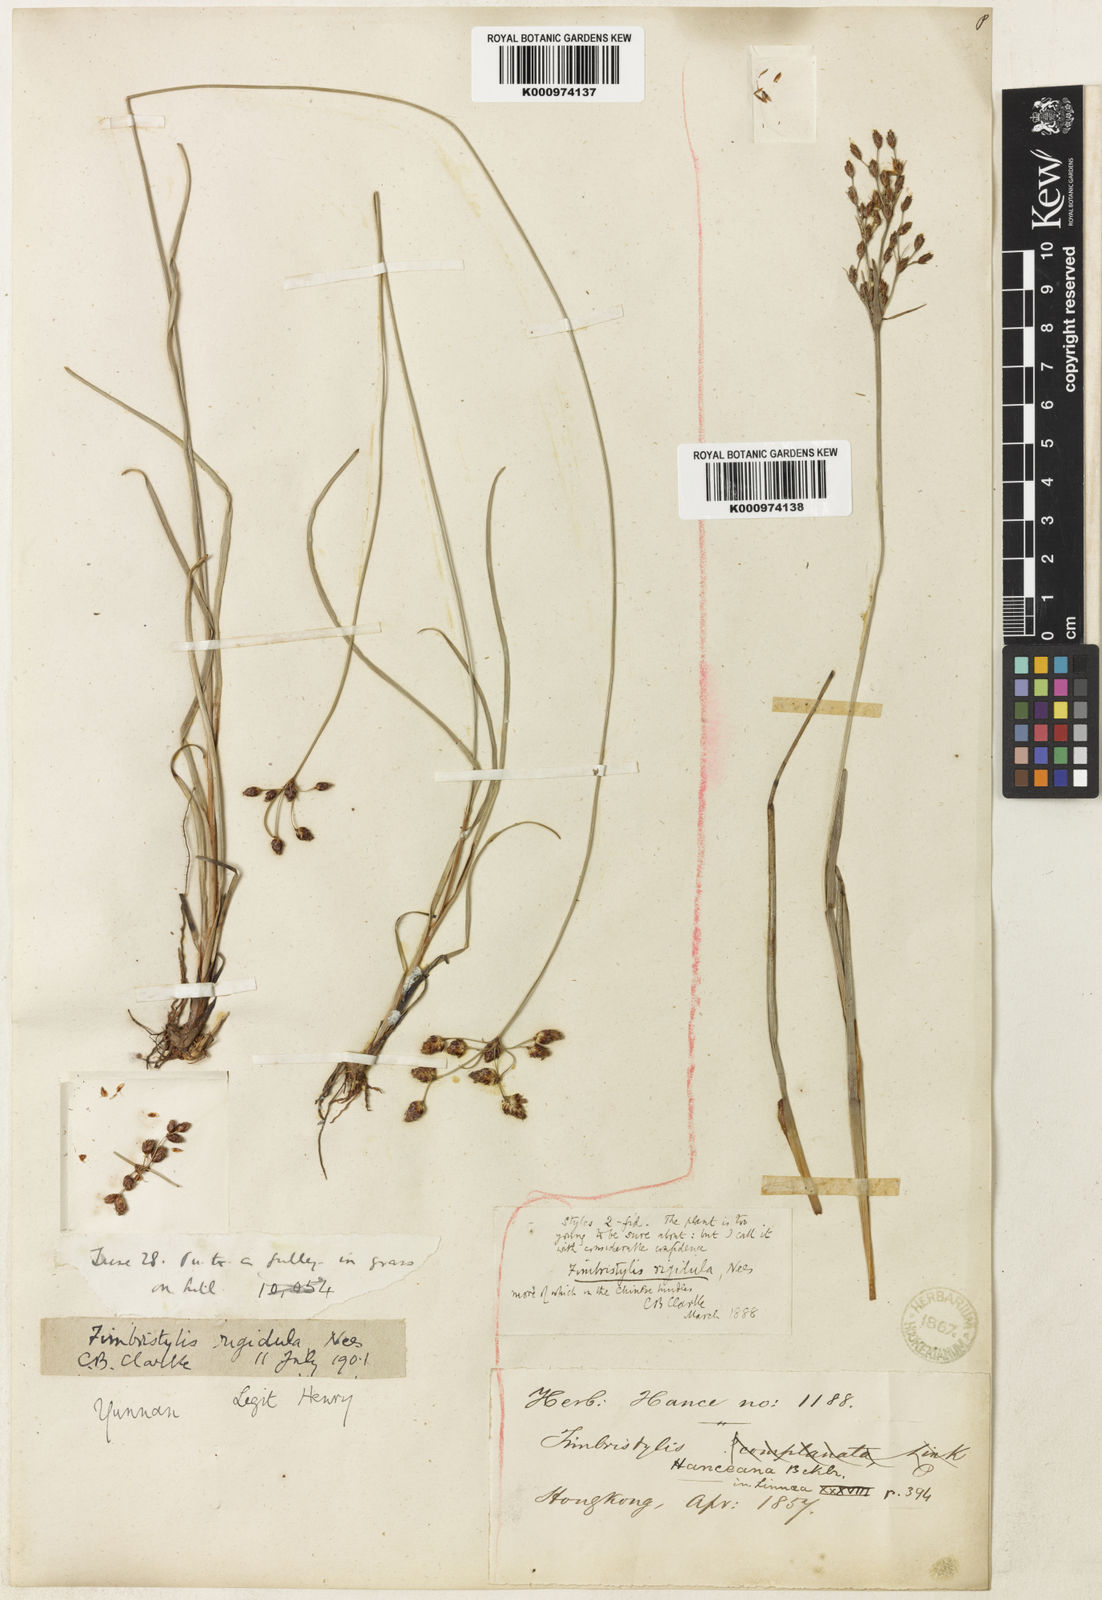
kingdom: Plantae
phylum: Tracheophyta
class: Liliopsida
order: Poales
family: Cyperaceae
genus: Fimbristylis
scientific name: Fimbristylis rigidula
